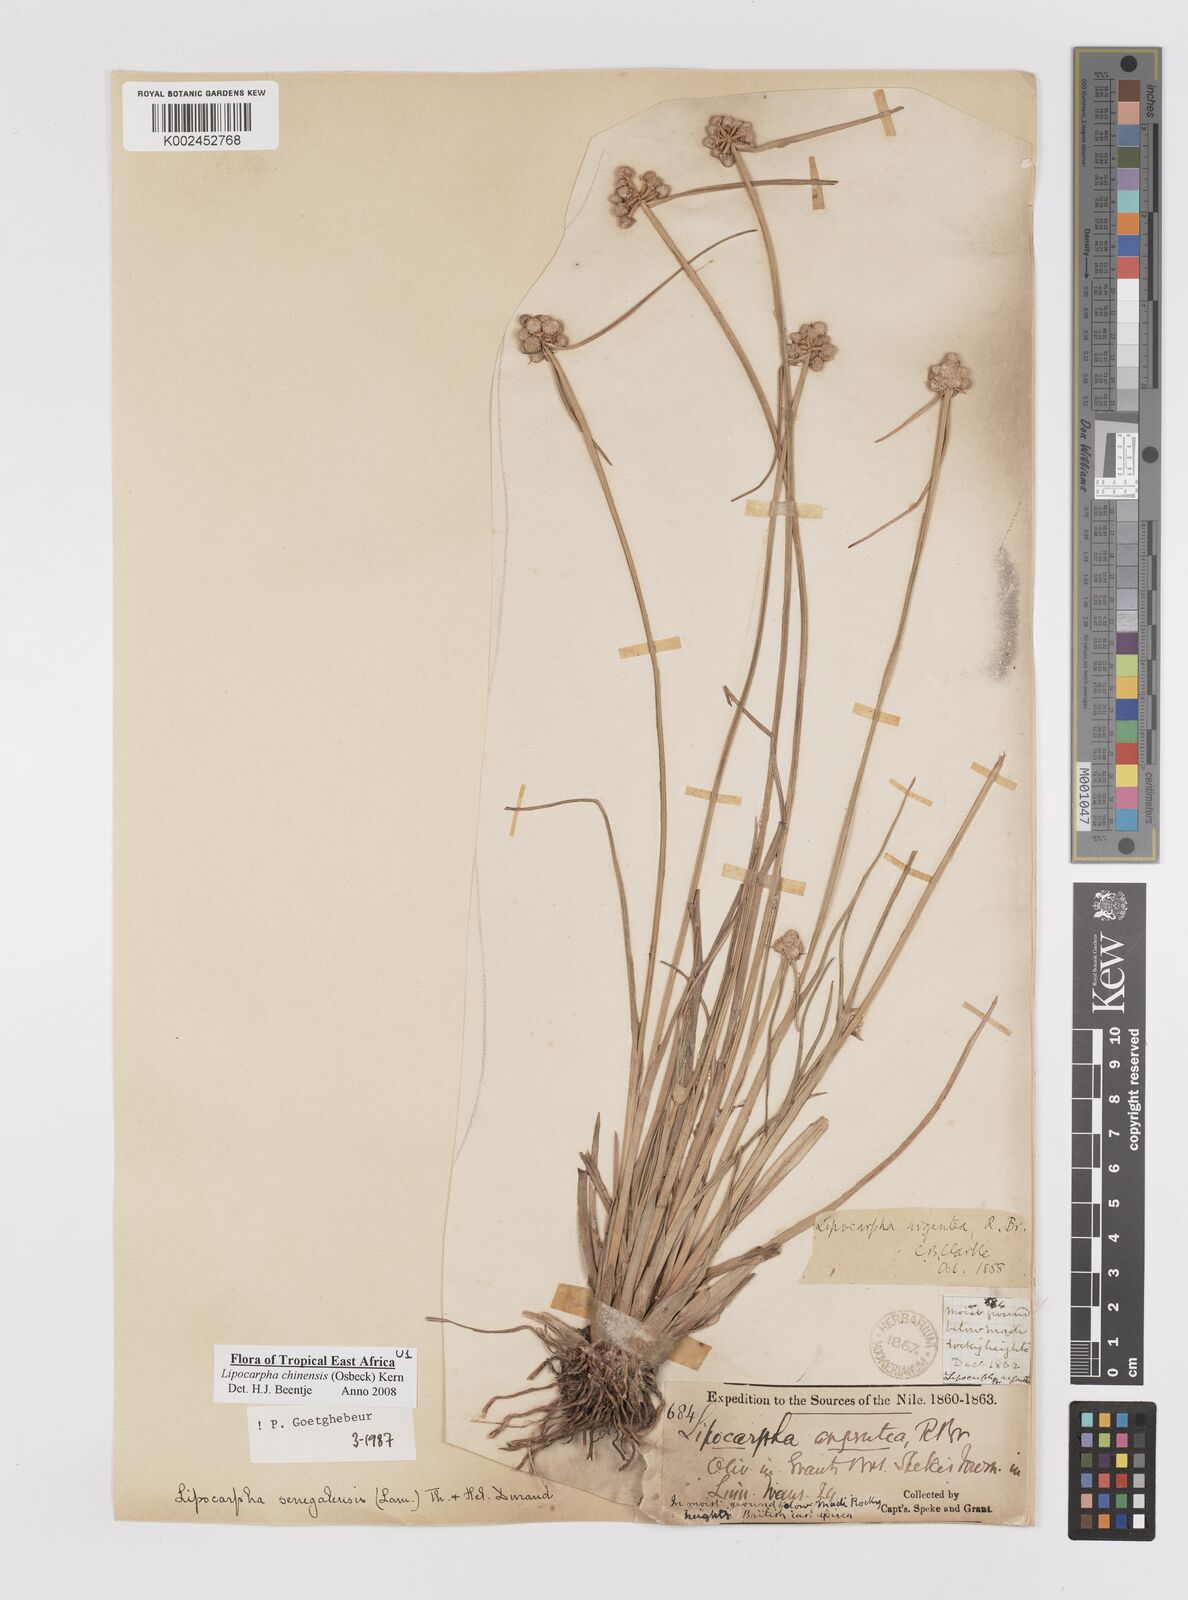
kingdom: Plantae
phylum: Tracheophyta
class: Liliopsida
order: Poales
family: Cyperaceae
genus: Cyperus
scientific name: Cyperus albescens
